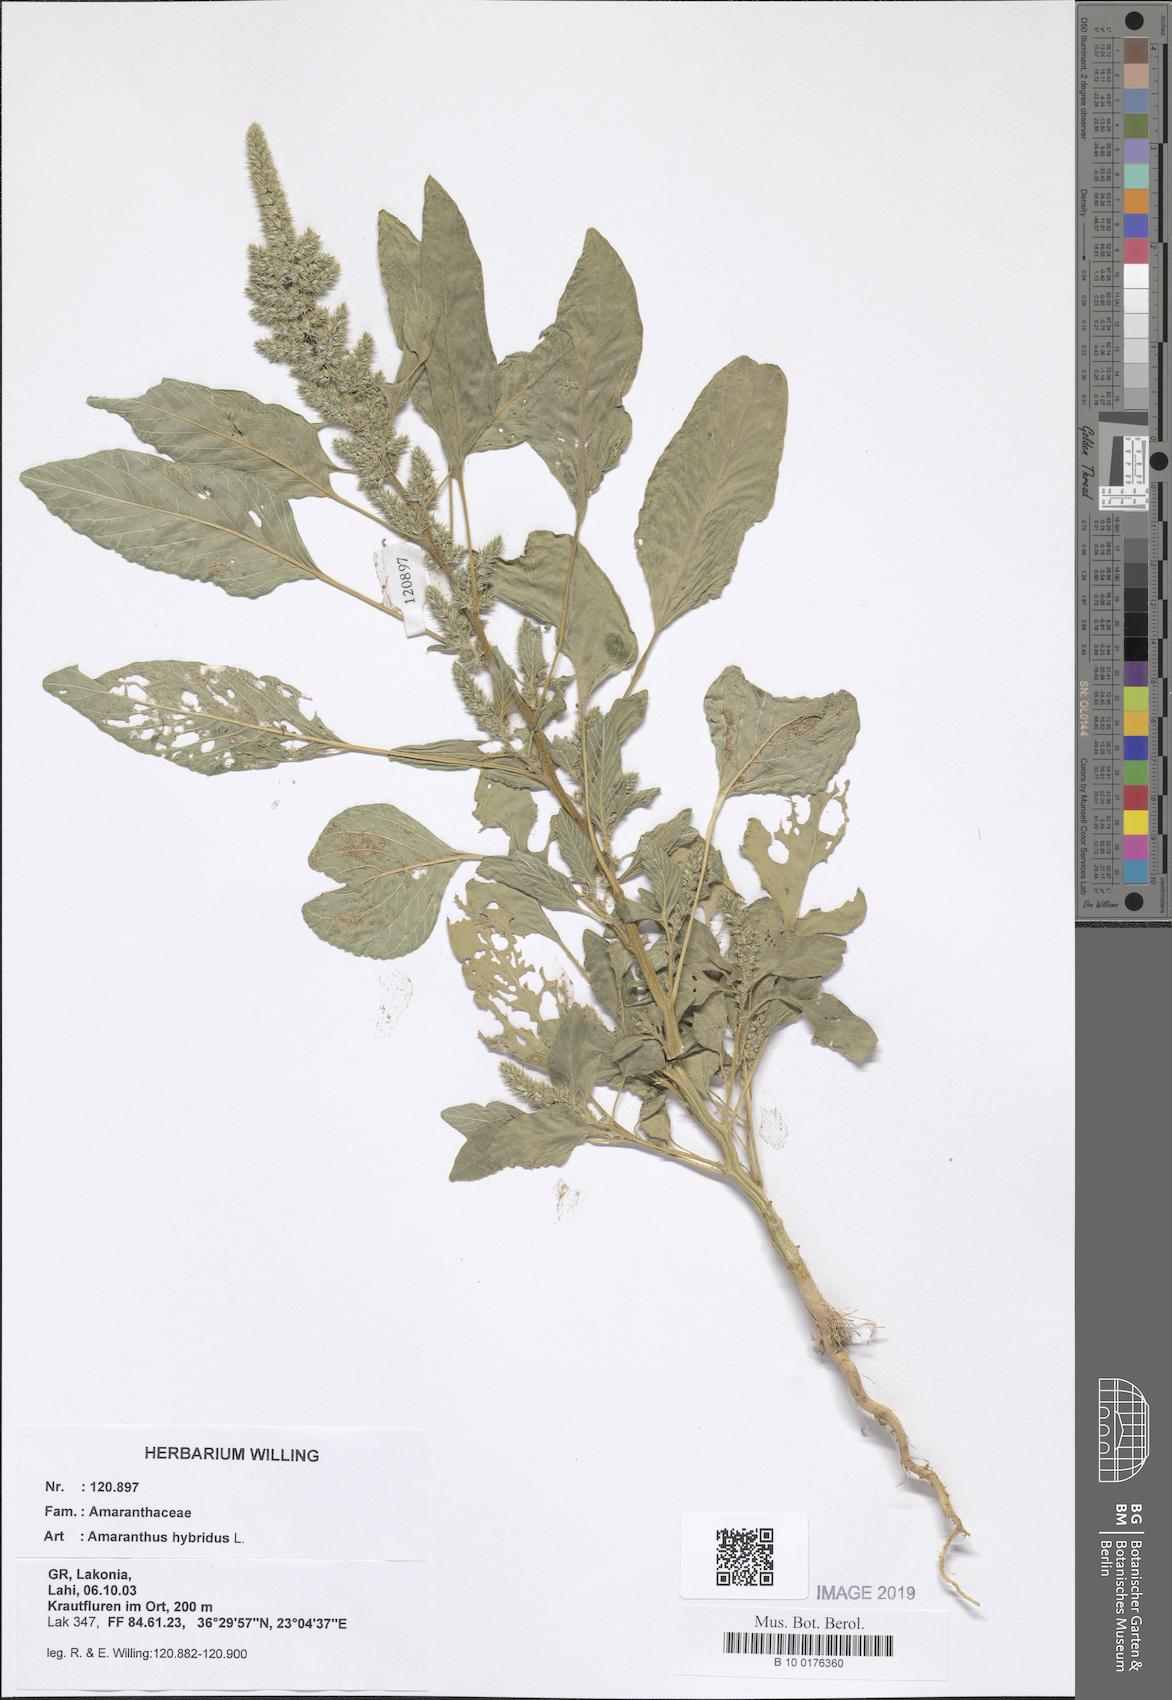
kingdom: Plantae
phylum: Tracheophyta
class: Magnoliopsida
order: Caryophyllales
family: Amaranthaceae
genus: Amaranthus
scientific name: Amaranthus hybridus
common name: Green amaranth
